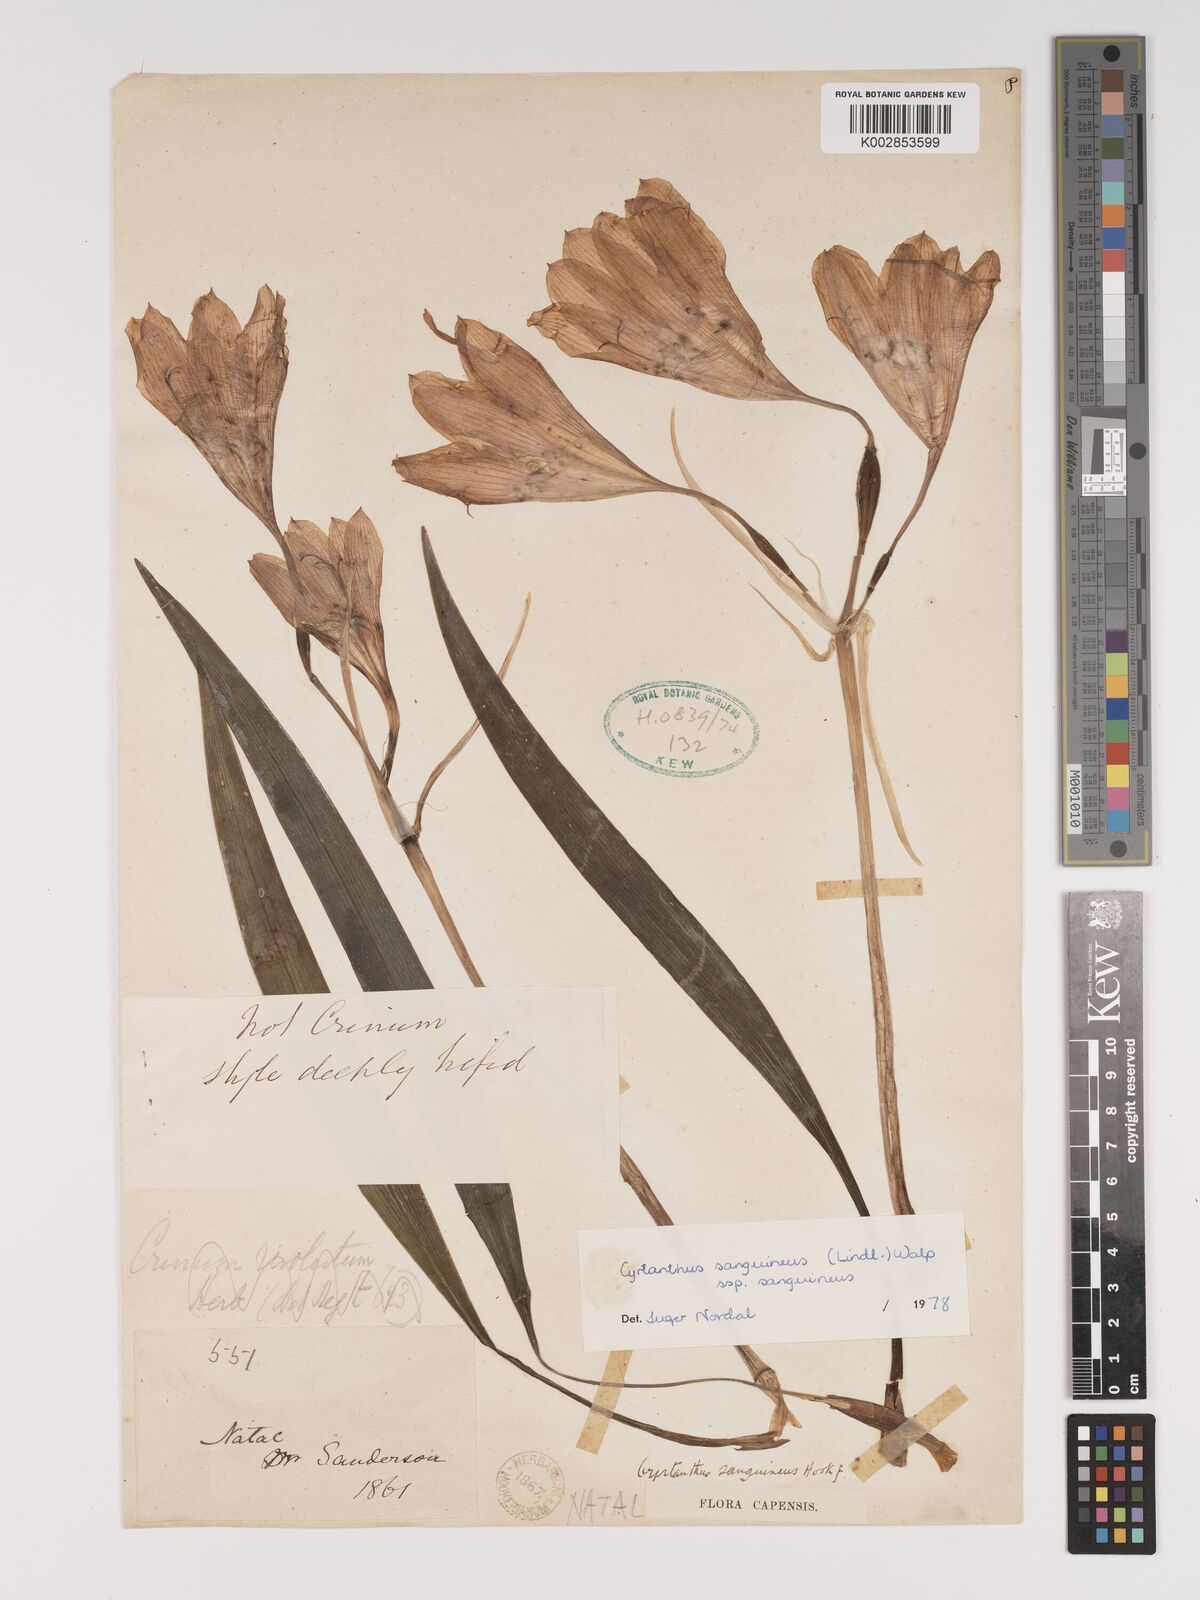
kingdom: Plantae
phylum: Tracheophyta
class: Liliopsida
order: Asparagales
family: Amaryllidaceae
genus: Cyrtanthus
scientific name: Cyrtanthus sanguineus
